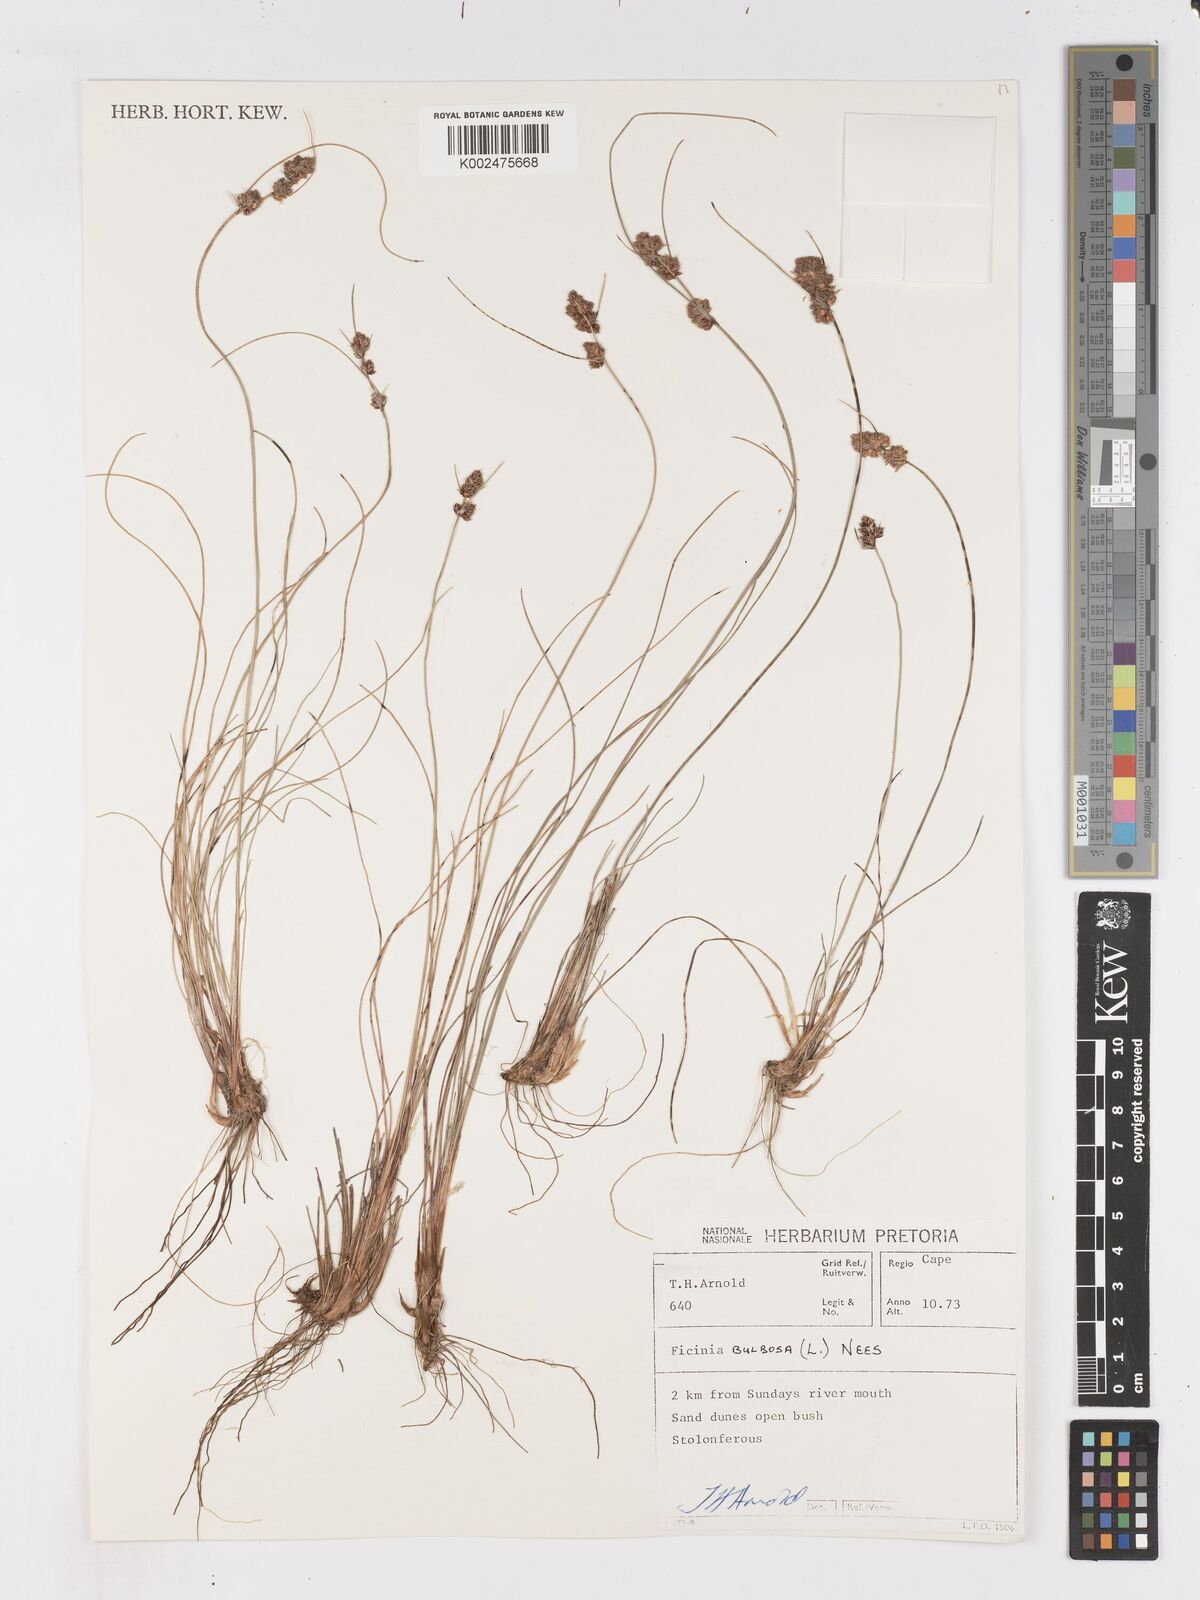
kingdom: Plantae
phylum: Tracheophyta
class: Liliopsida
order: Poales
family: Cyperaceae
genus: Ficinia
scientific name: Ficinia bulbosa
